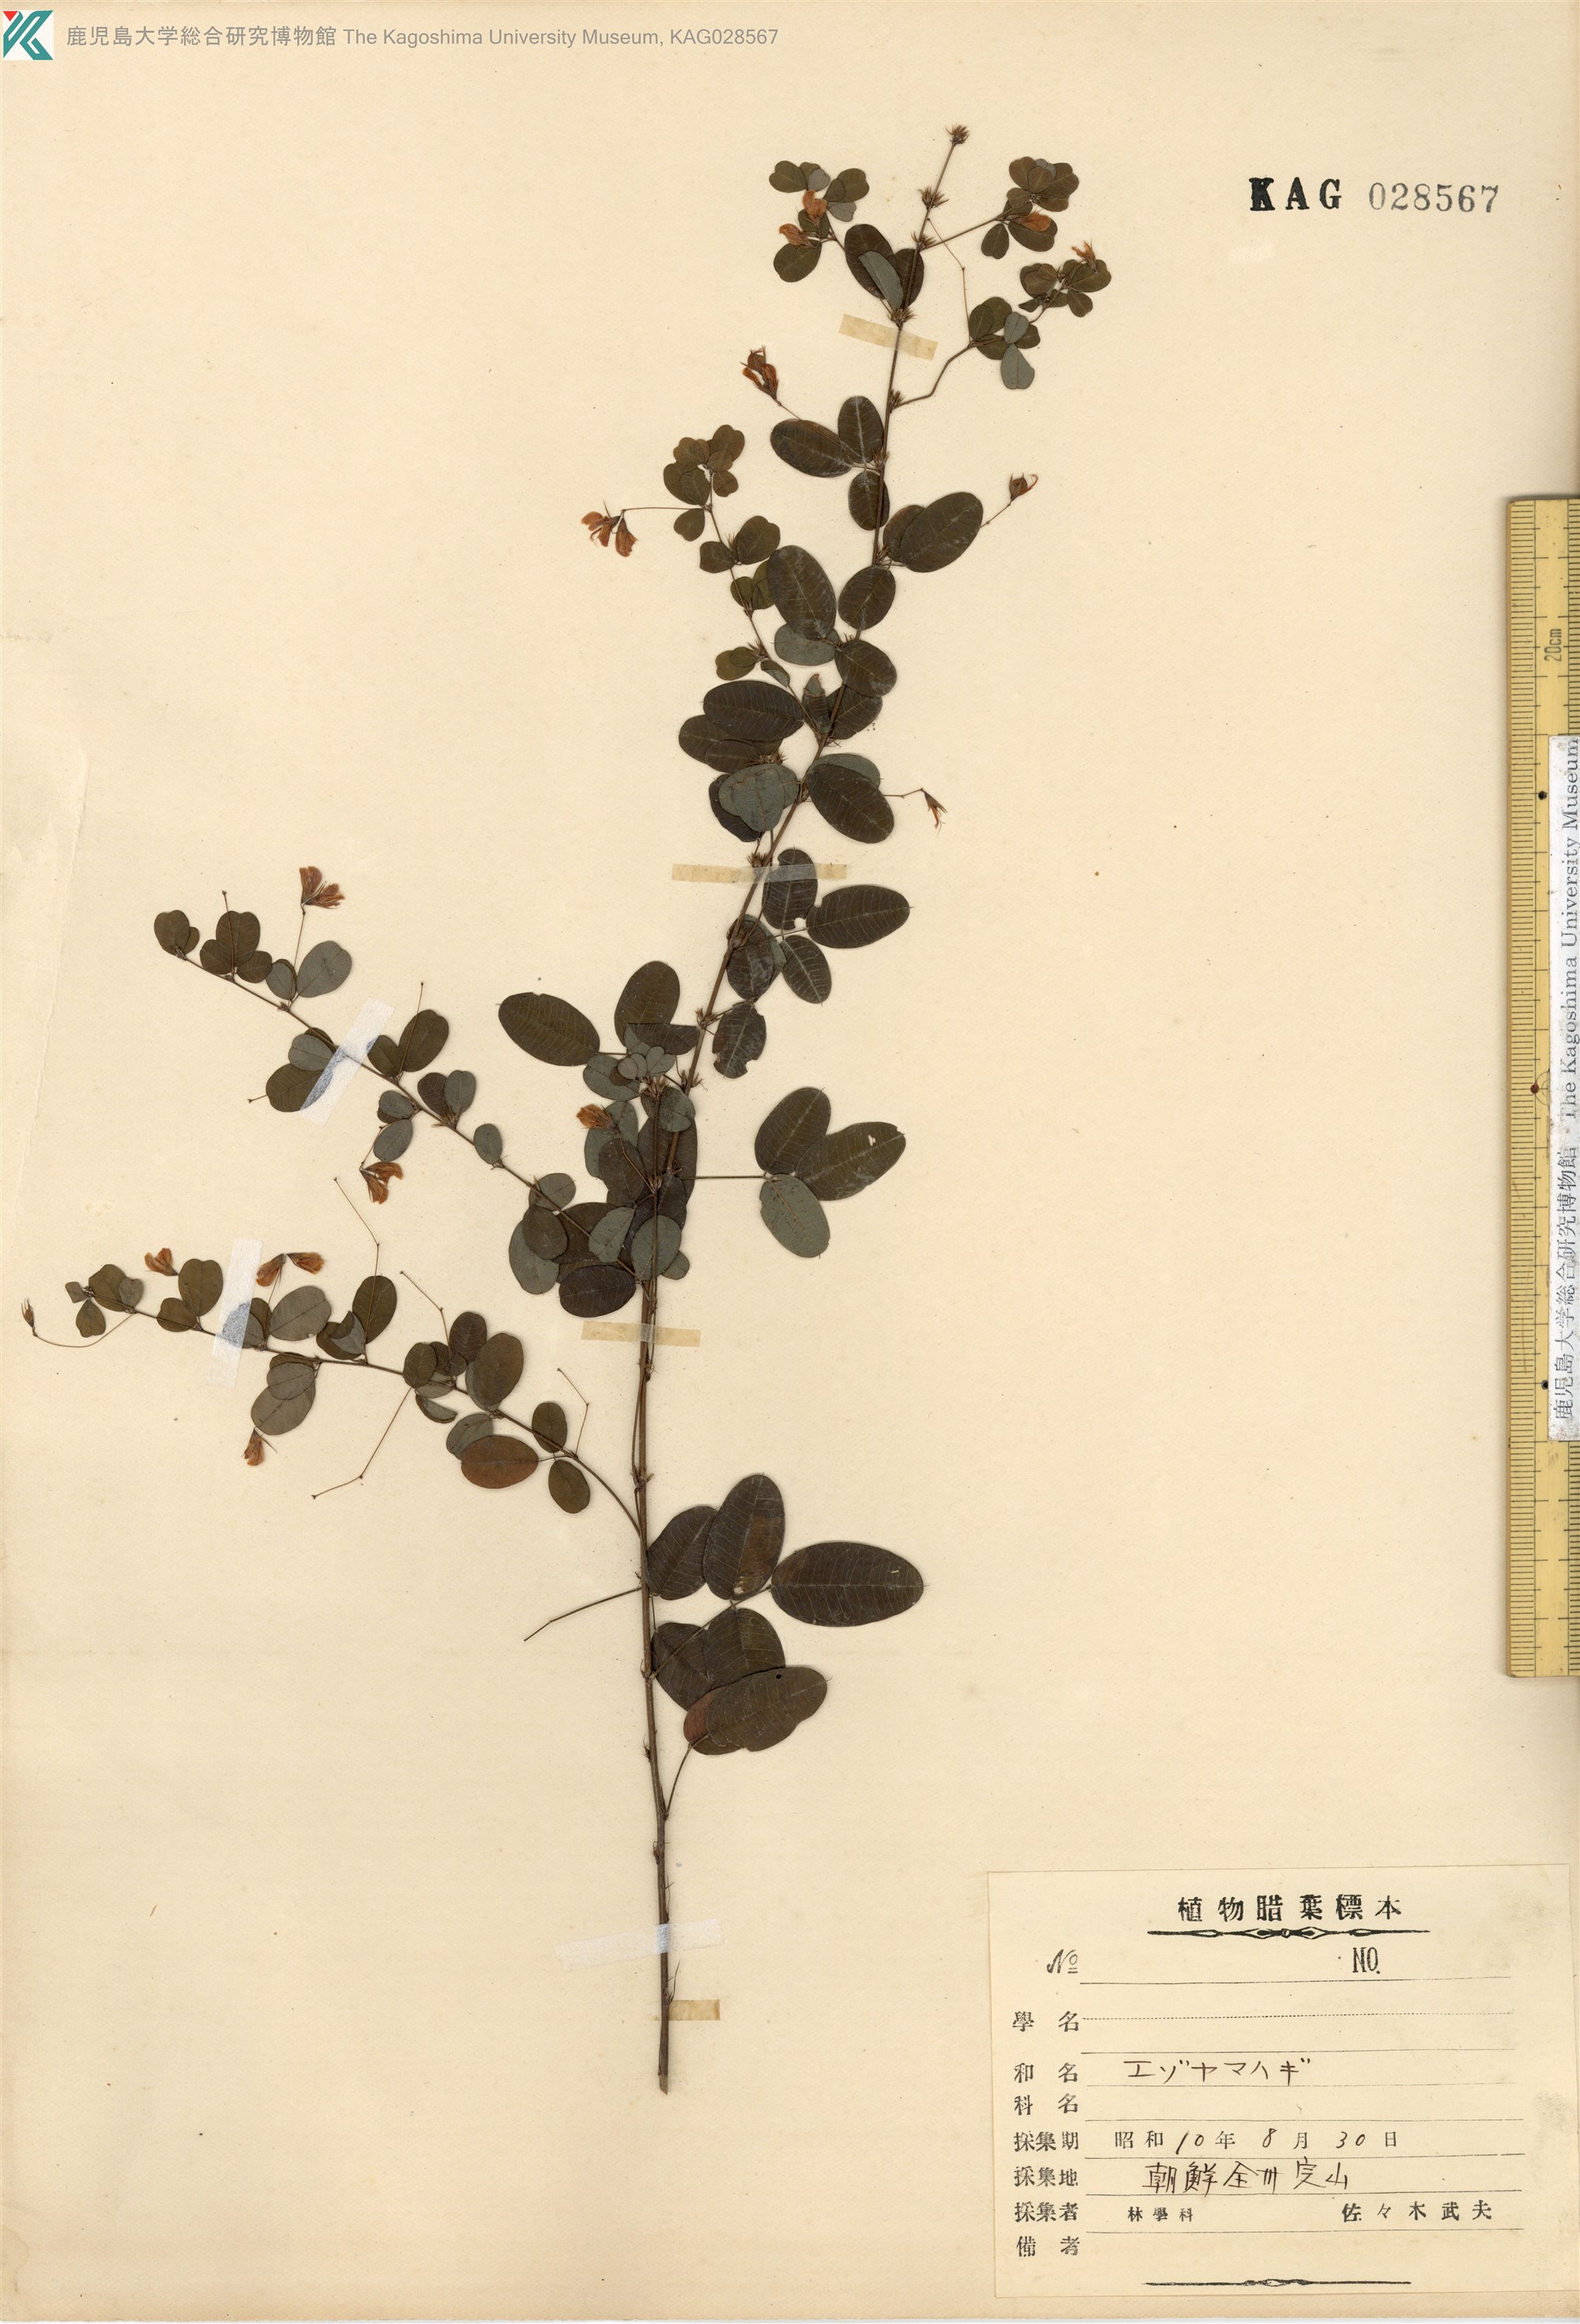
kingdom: Plantae
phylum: Tracheophyta
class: Magnoliopsida
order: Fabales
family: Fabaceae
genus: Lespedeza
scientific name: Lespedeza virgata
